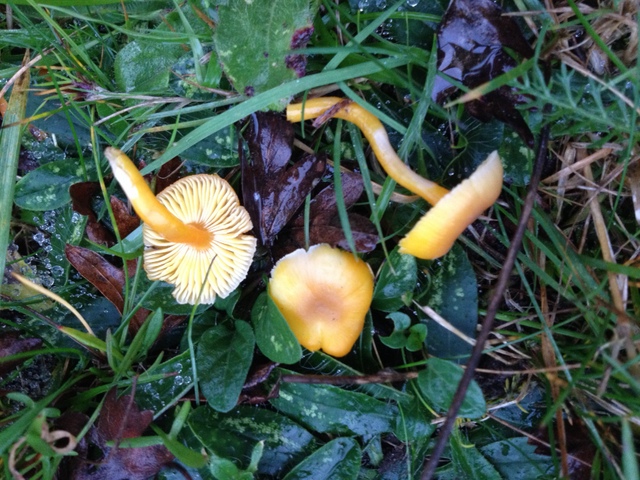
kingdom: Fungi
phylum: Basidiomycota
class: Agaricomycetes
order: Agaricales
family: Hygrophoraceae
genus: Hygrocybe
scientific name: Hygrocybe miniata
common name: mønje-vokshat
